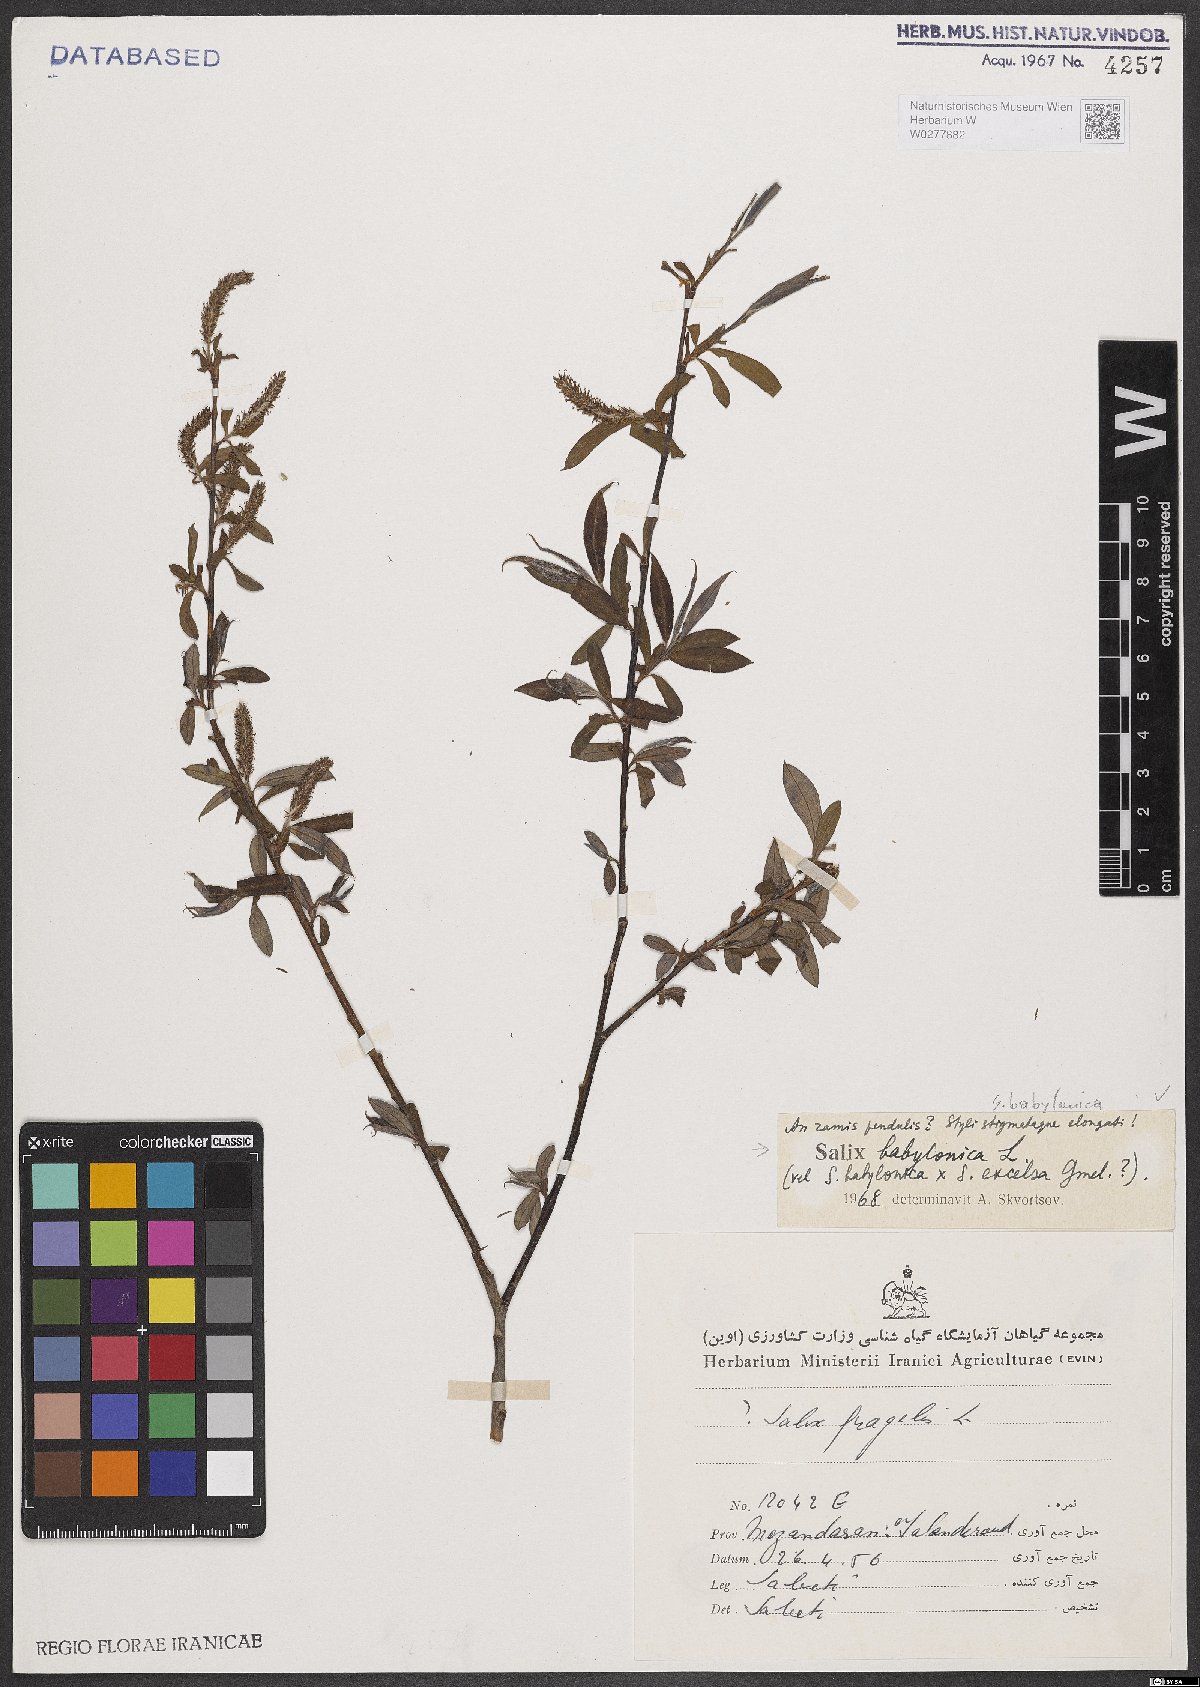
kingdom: Plantae
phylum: Tracheophyta
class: Magnoliopsida
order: Malpighiales
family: Salicaceae
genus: Salix
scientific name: Salix babylonica
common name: Weeping willow
